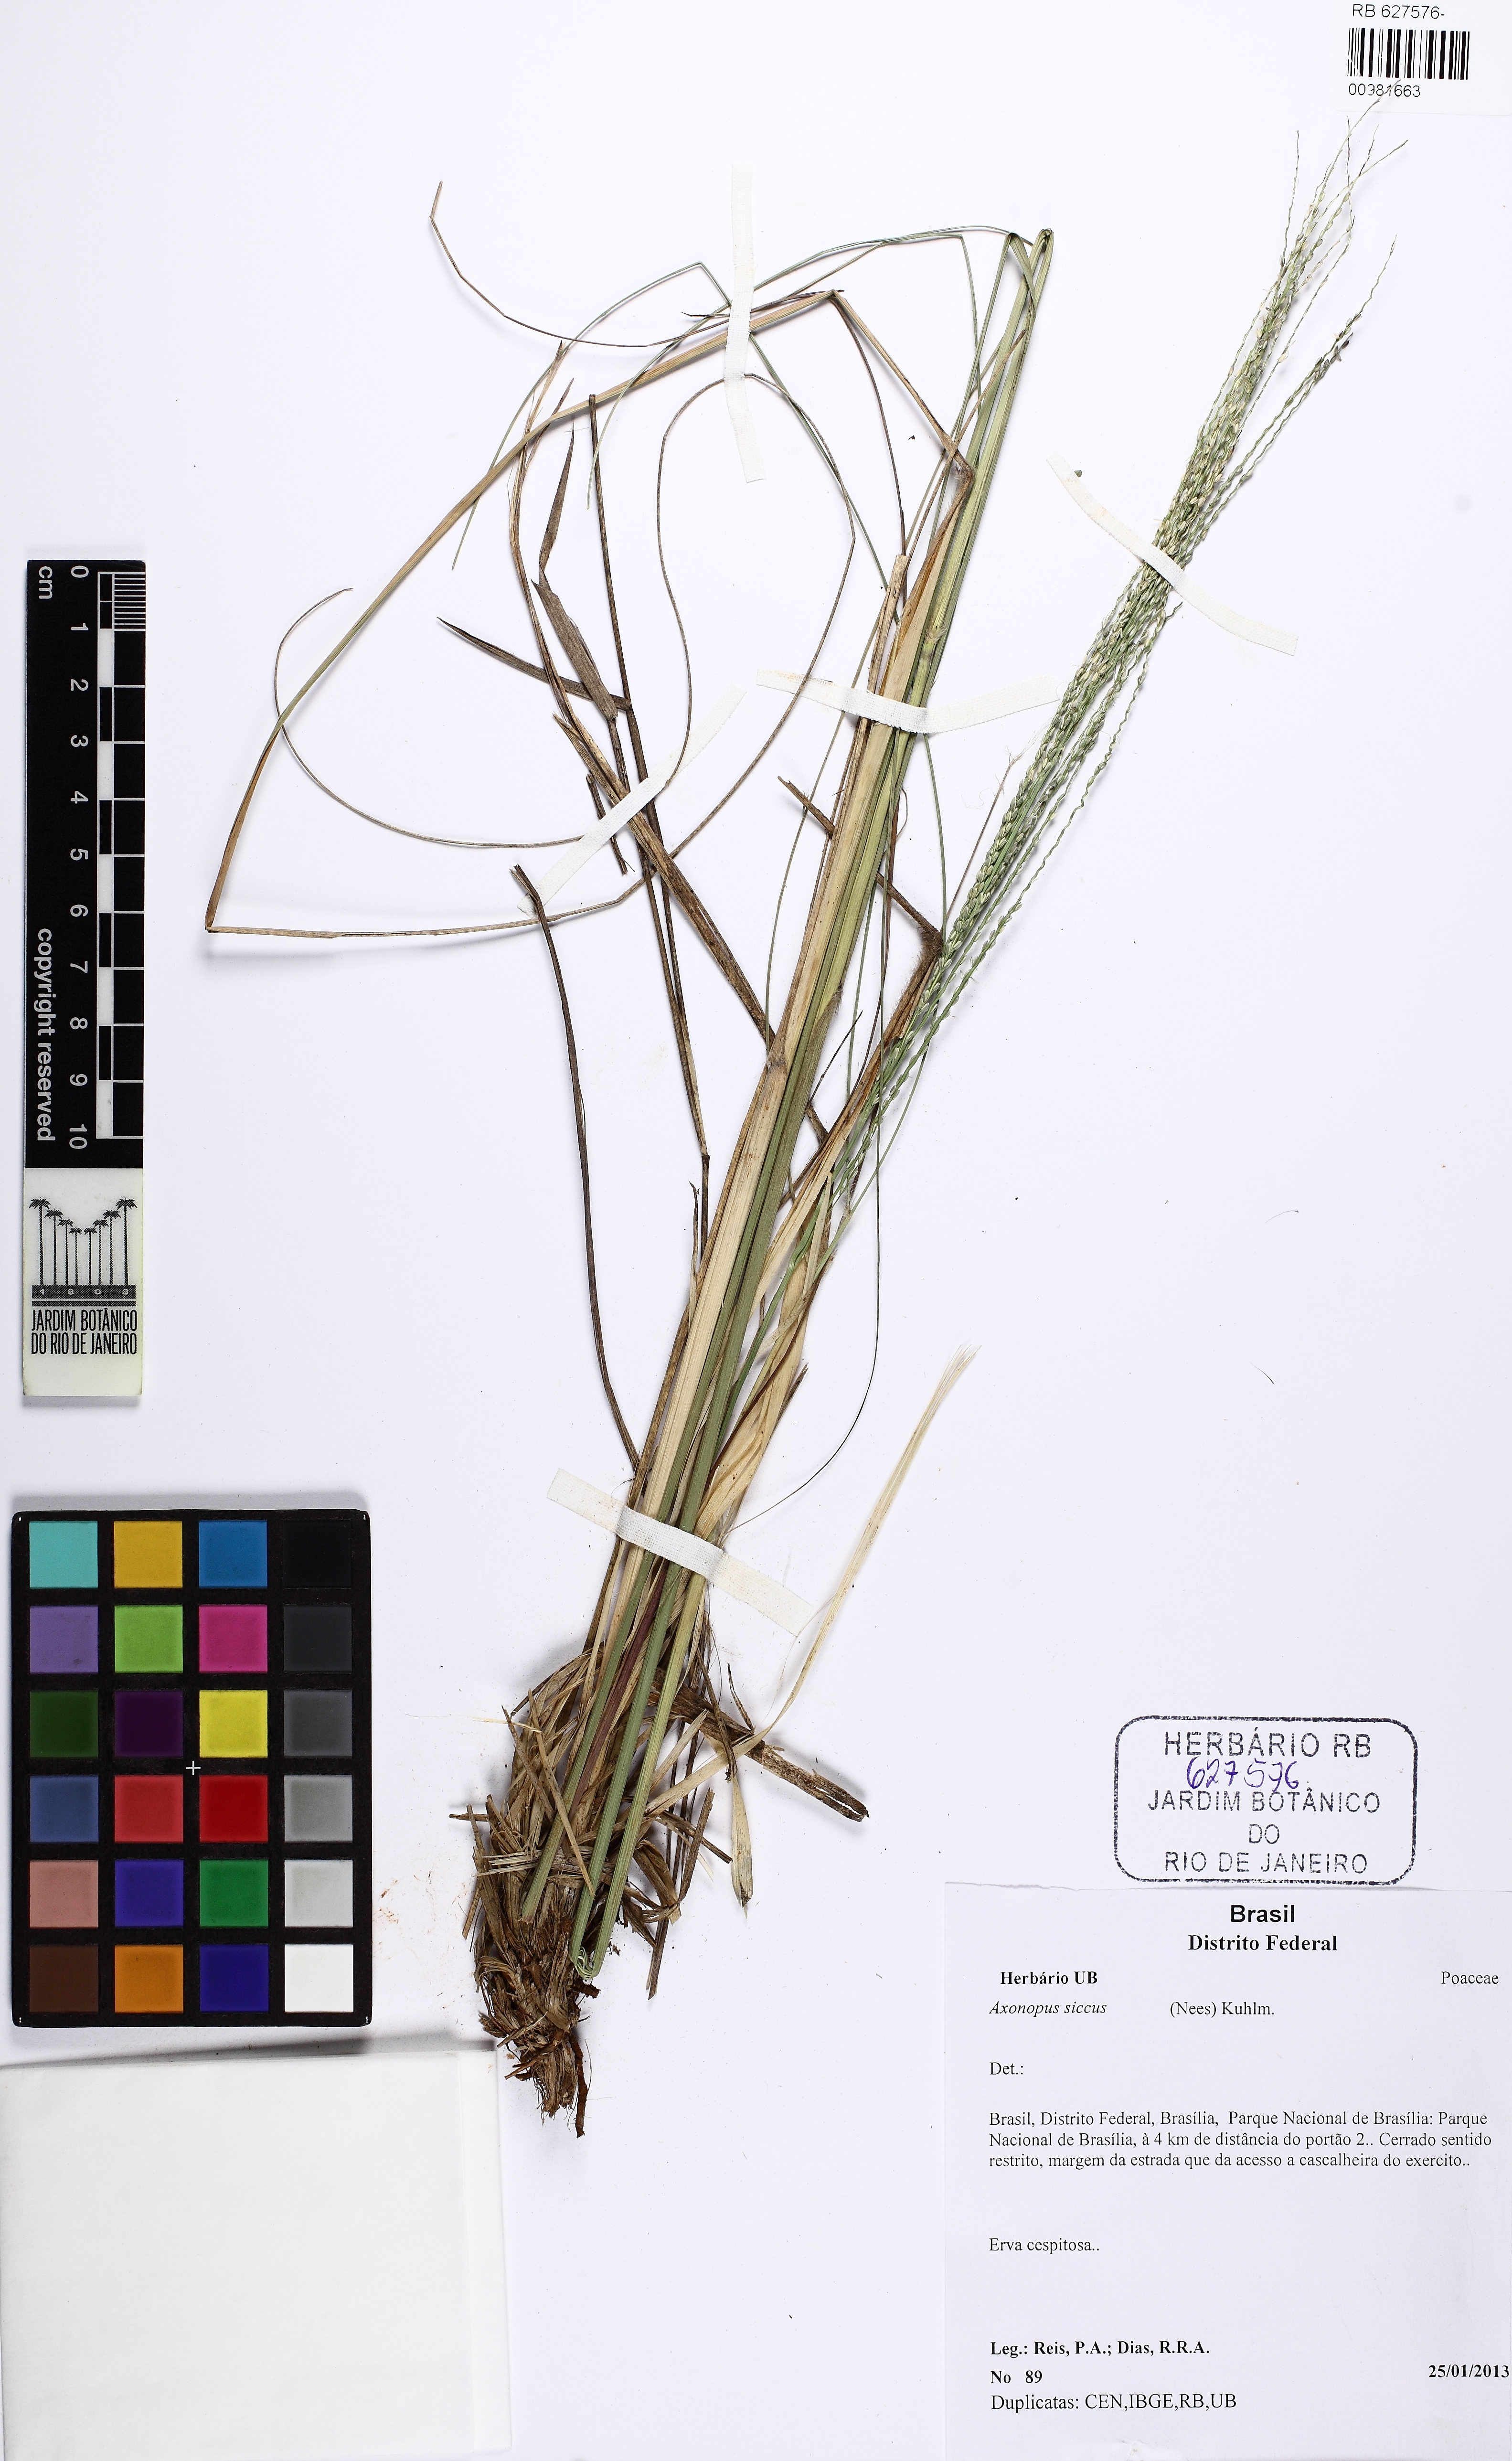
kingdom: Plantae
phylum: Tracheophyta
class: Liliopsida
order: Poales
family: Poaceae
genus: Axonopus
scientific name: Axonopus siccus
